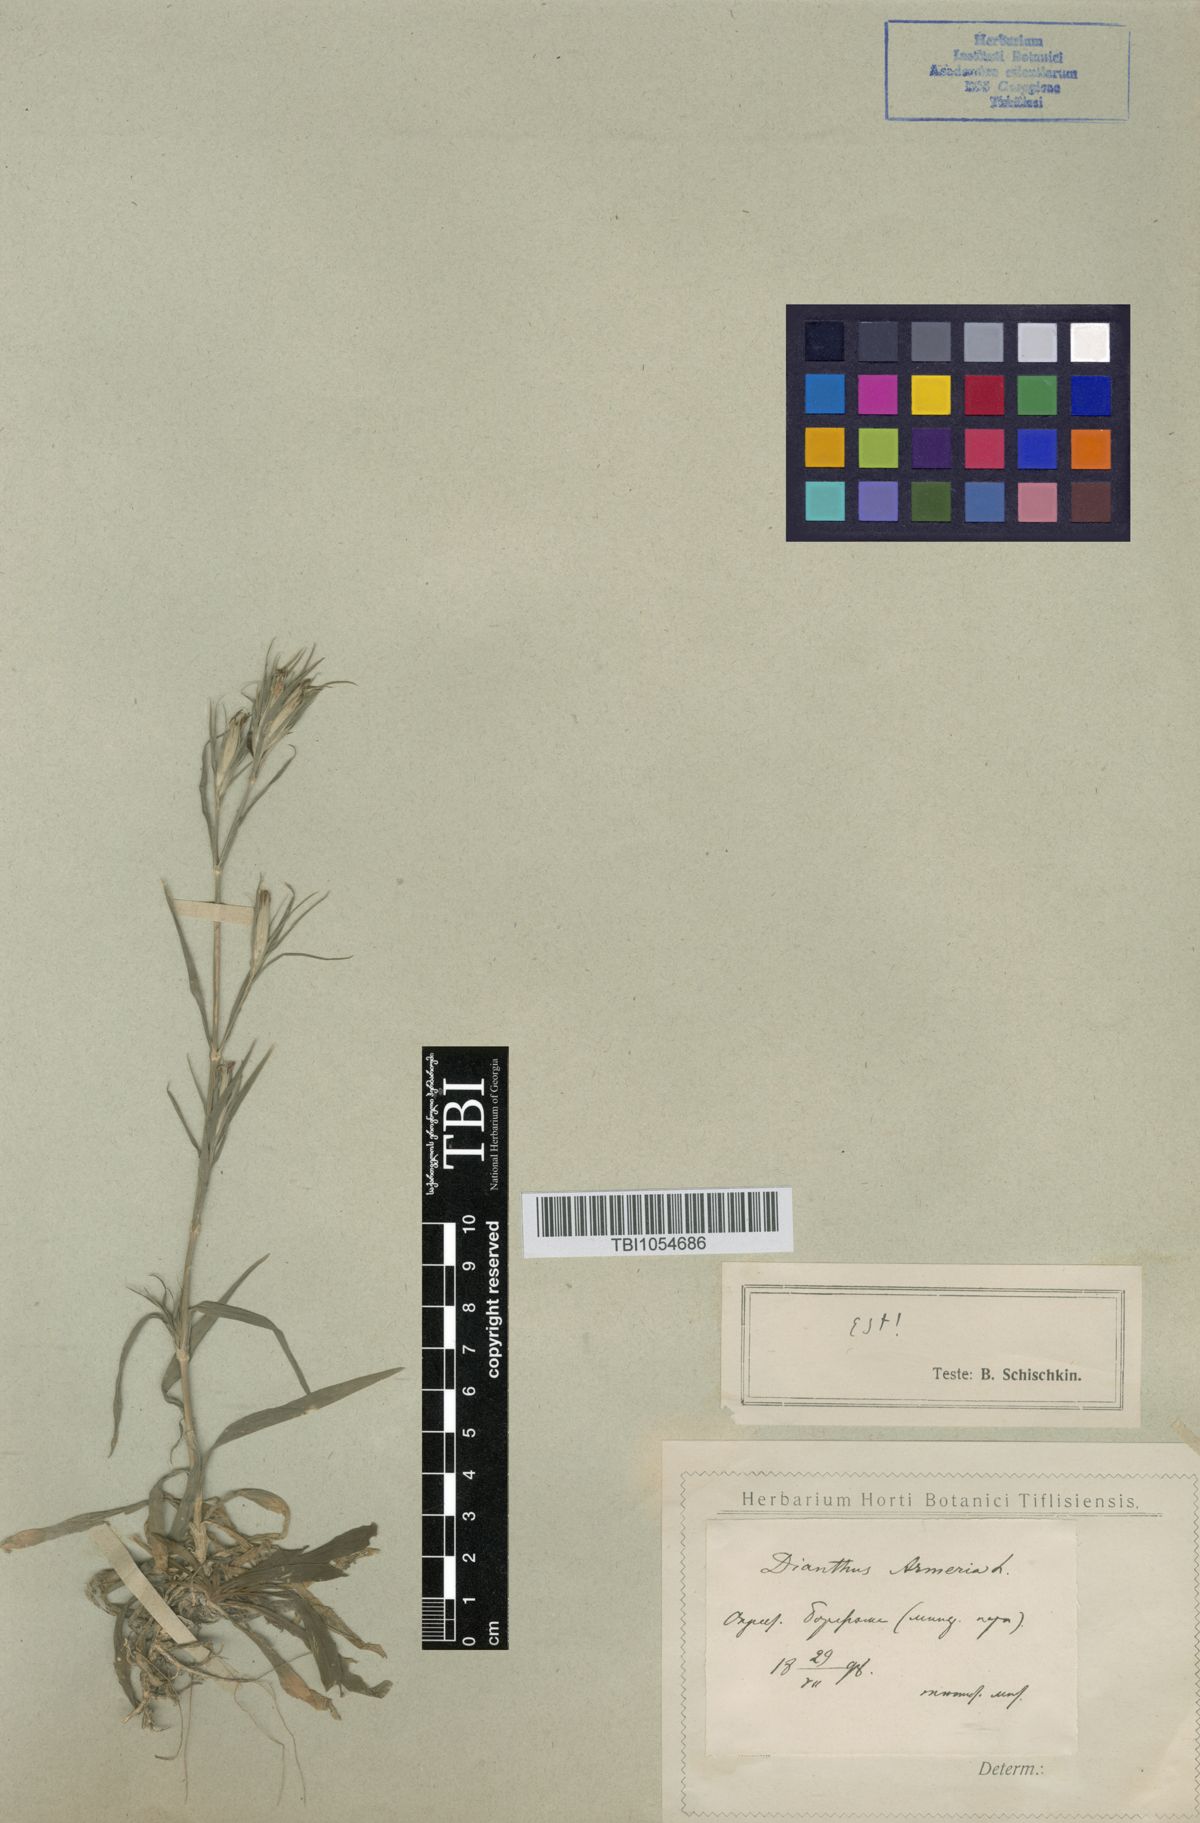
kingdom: Plantae
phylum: Tracheophyta
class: Magnoliopsida
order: Caryophyllales
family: Caryophyllaceae
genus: Dianthus
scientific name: Dianthus armeria
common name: Deptford pink
